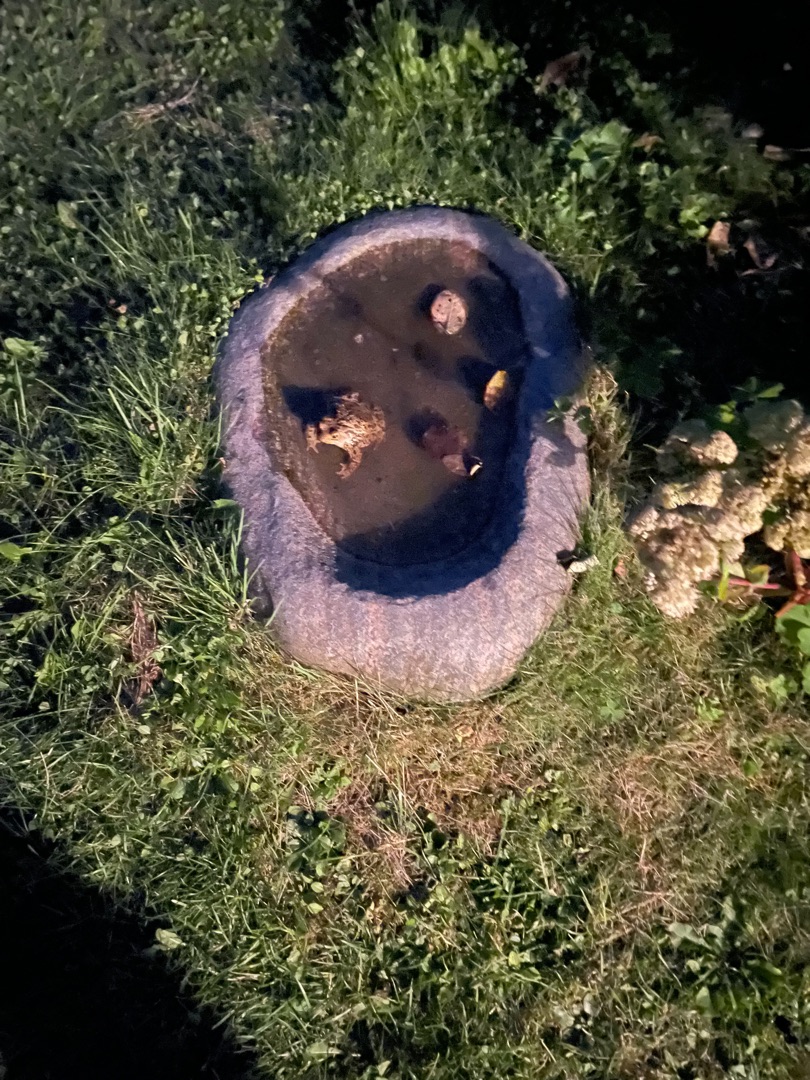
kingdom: Animalia
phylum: Chordata
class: Amphibia
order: Anura
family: Bufonidae
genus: Bufo
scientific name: Bufo bufo
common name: Skrubtudse
